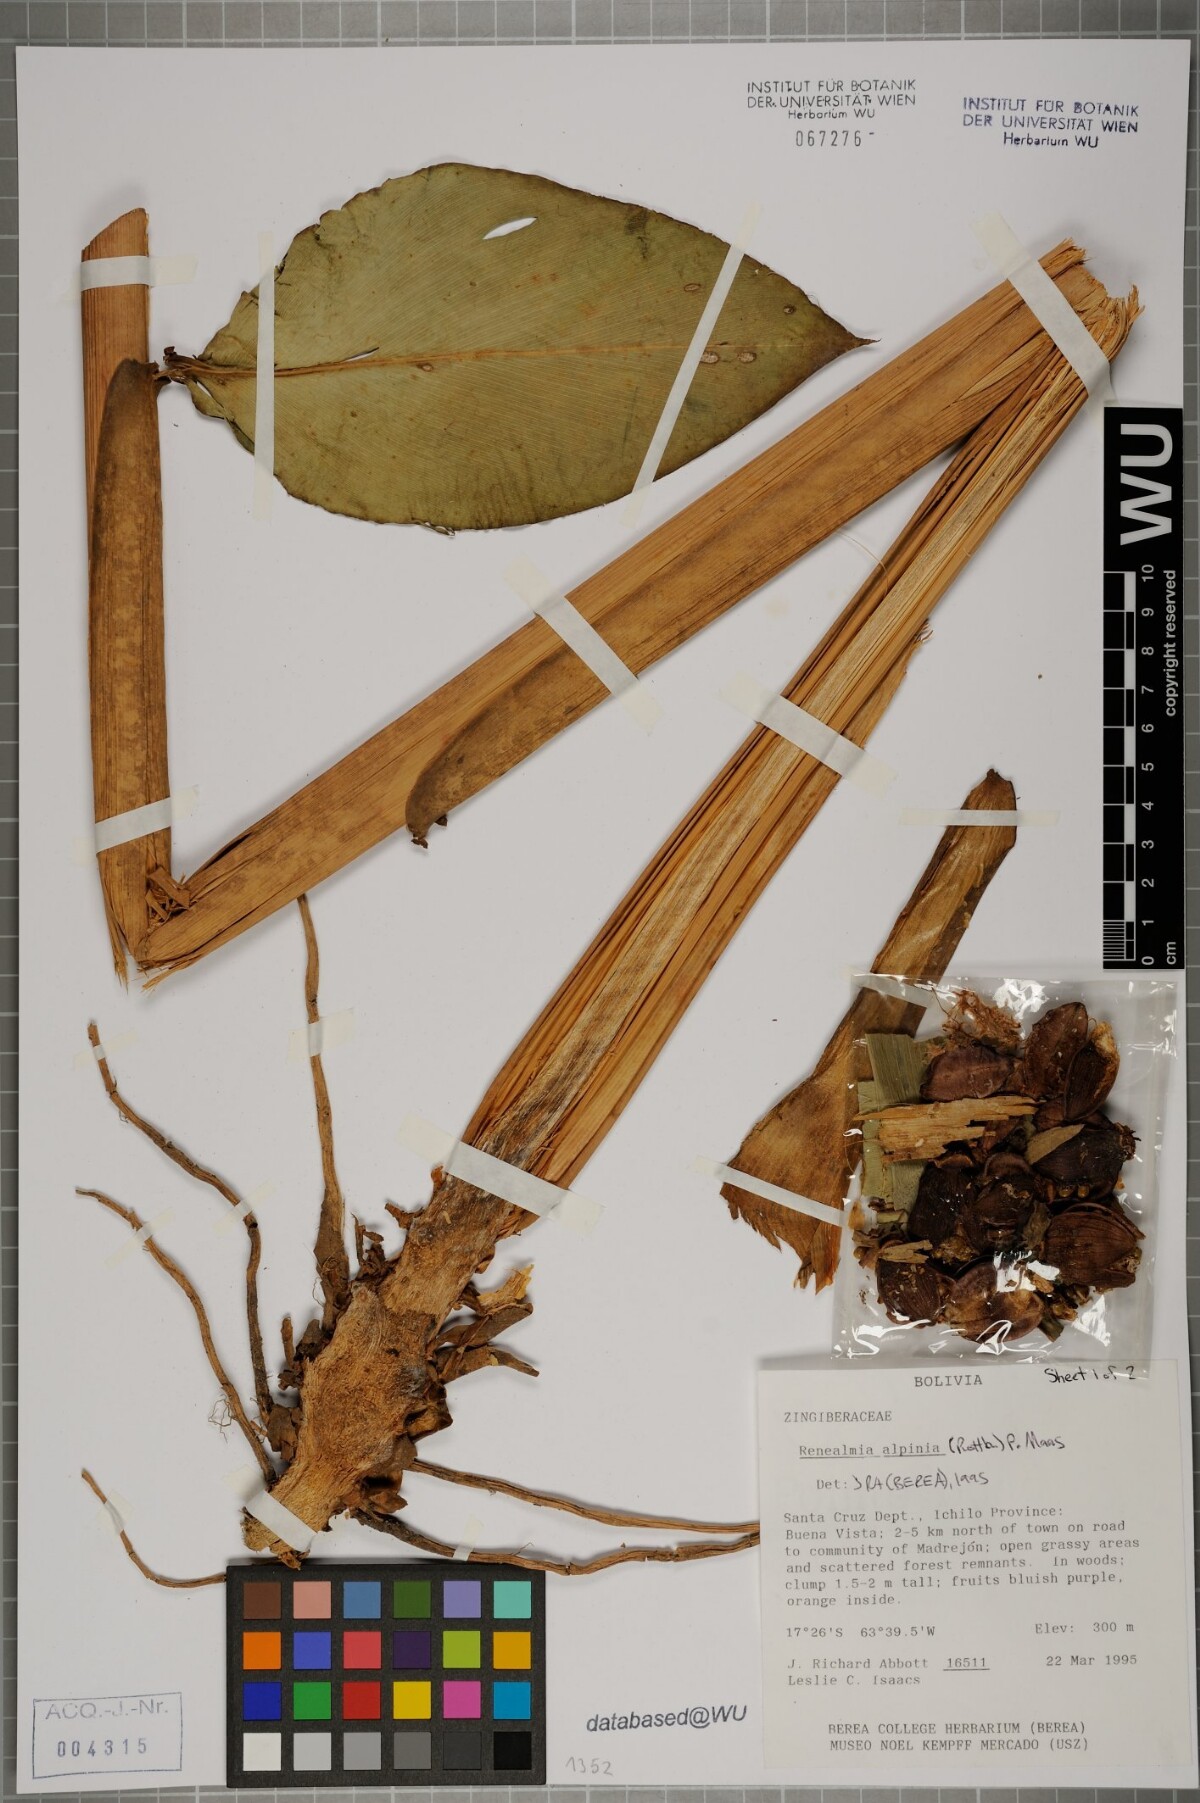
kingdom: Plantae
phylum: Tracheophyta
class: Liliopsida
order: Zingiberales
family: Zingiberaceae
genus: Renealmia
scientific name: Renealmia alpinia
